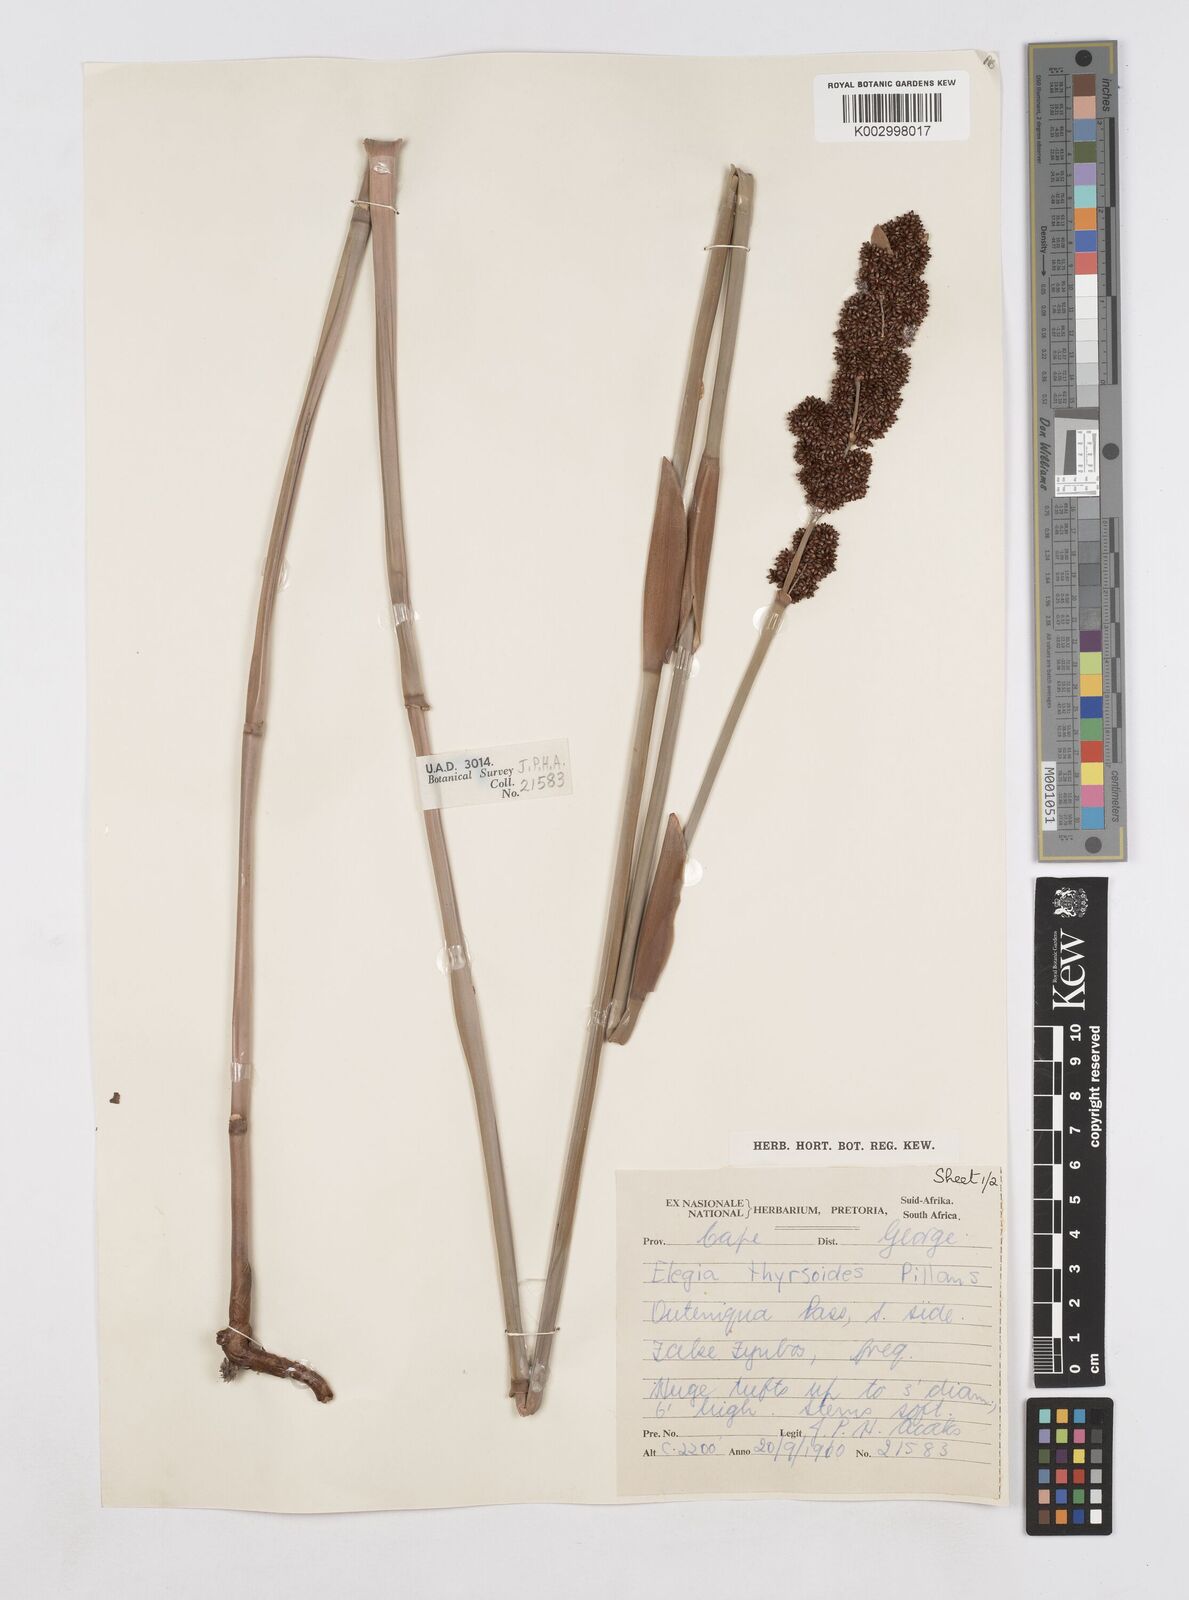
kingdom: Plantae
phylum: Tracheophyta
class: Liliopsida
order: Poales
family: Restionaceae
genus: Elegia
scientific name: Elegia thyrsoidea
